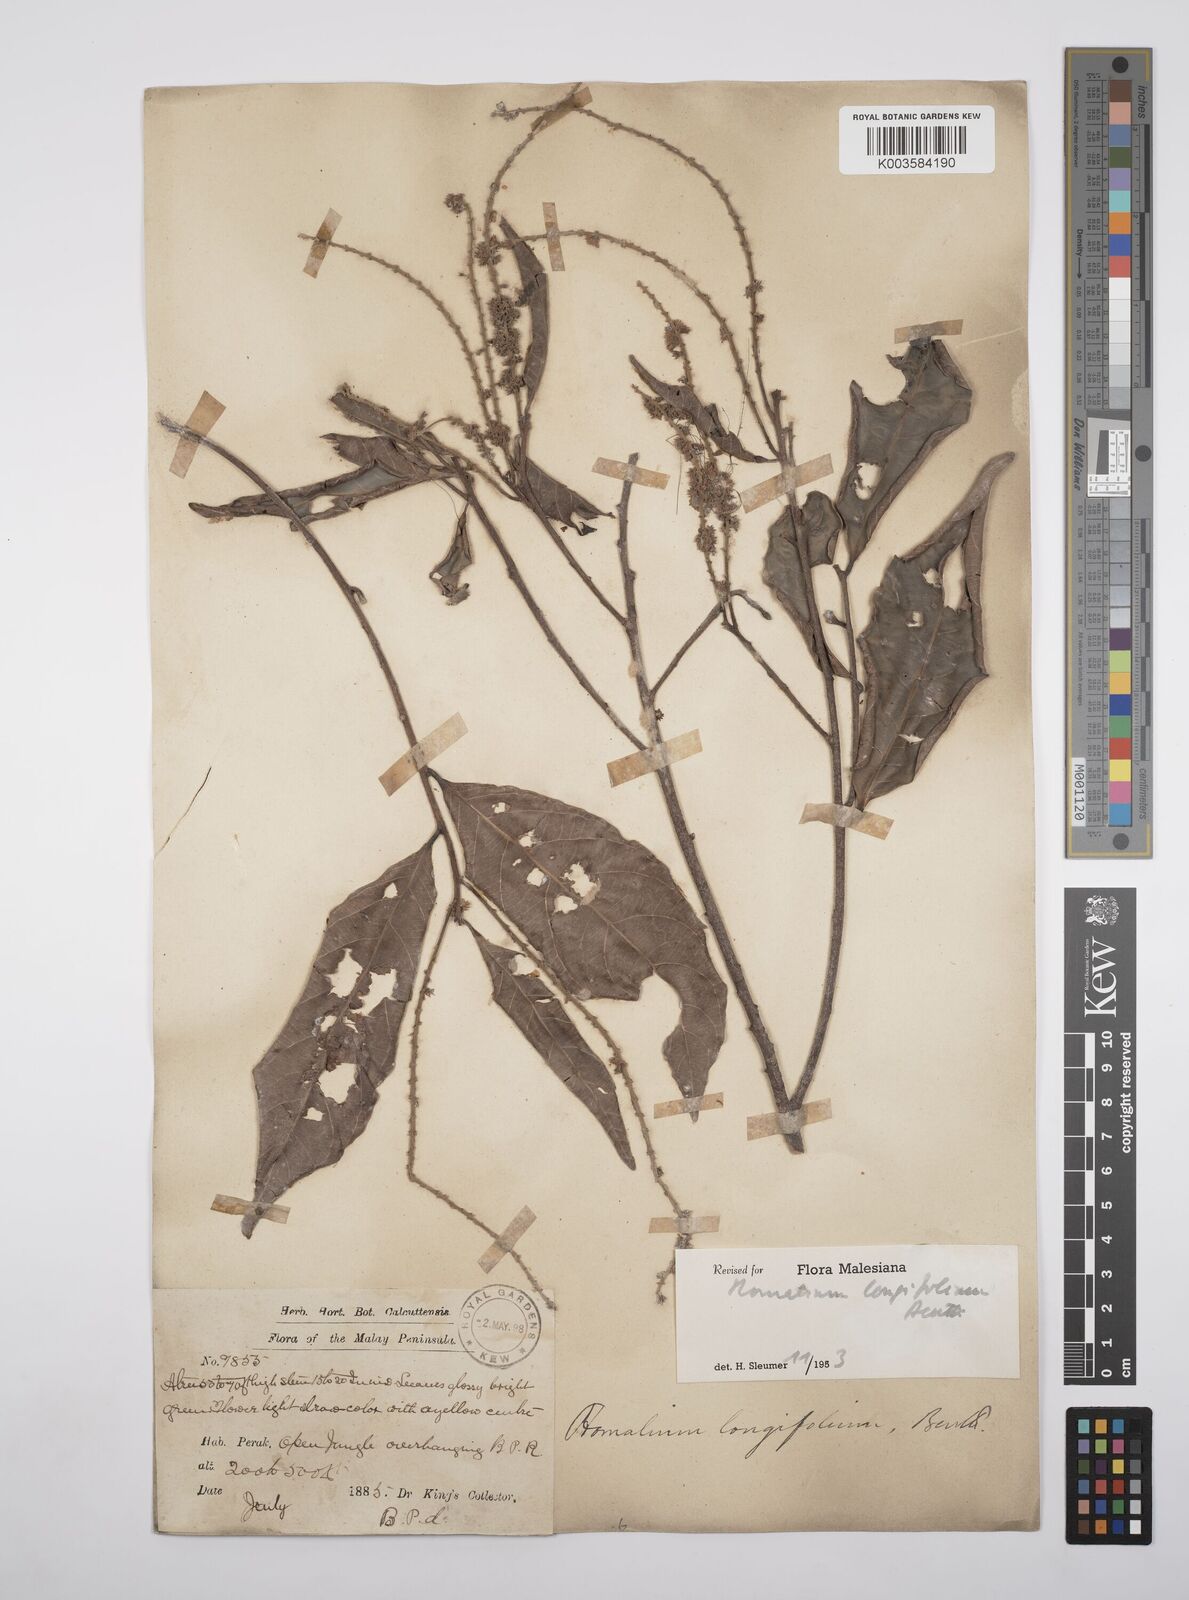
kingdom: Plantae
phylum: Tracheophyta
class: Magnoliopsida
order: Malpighiales
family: Salicaceae
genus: Homalium
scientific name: Homalium longifolium
